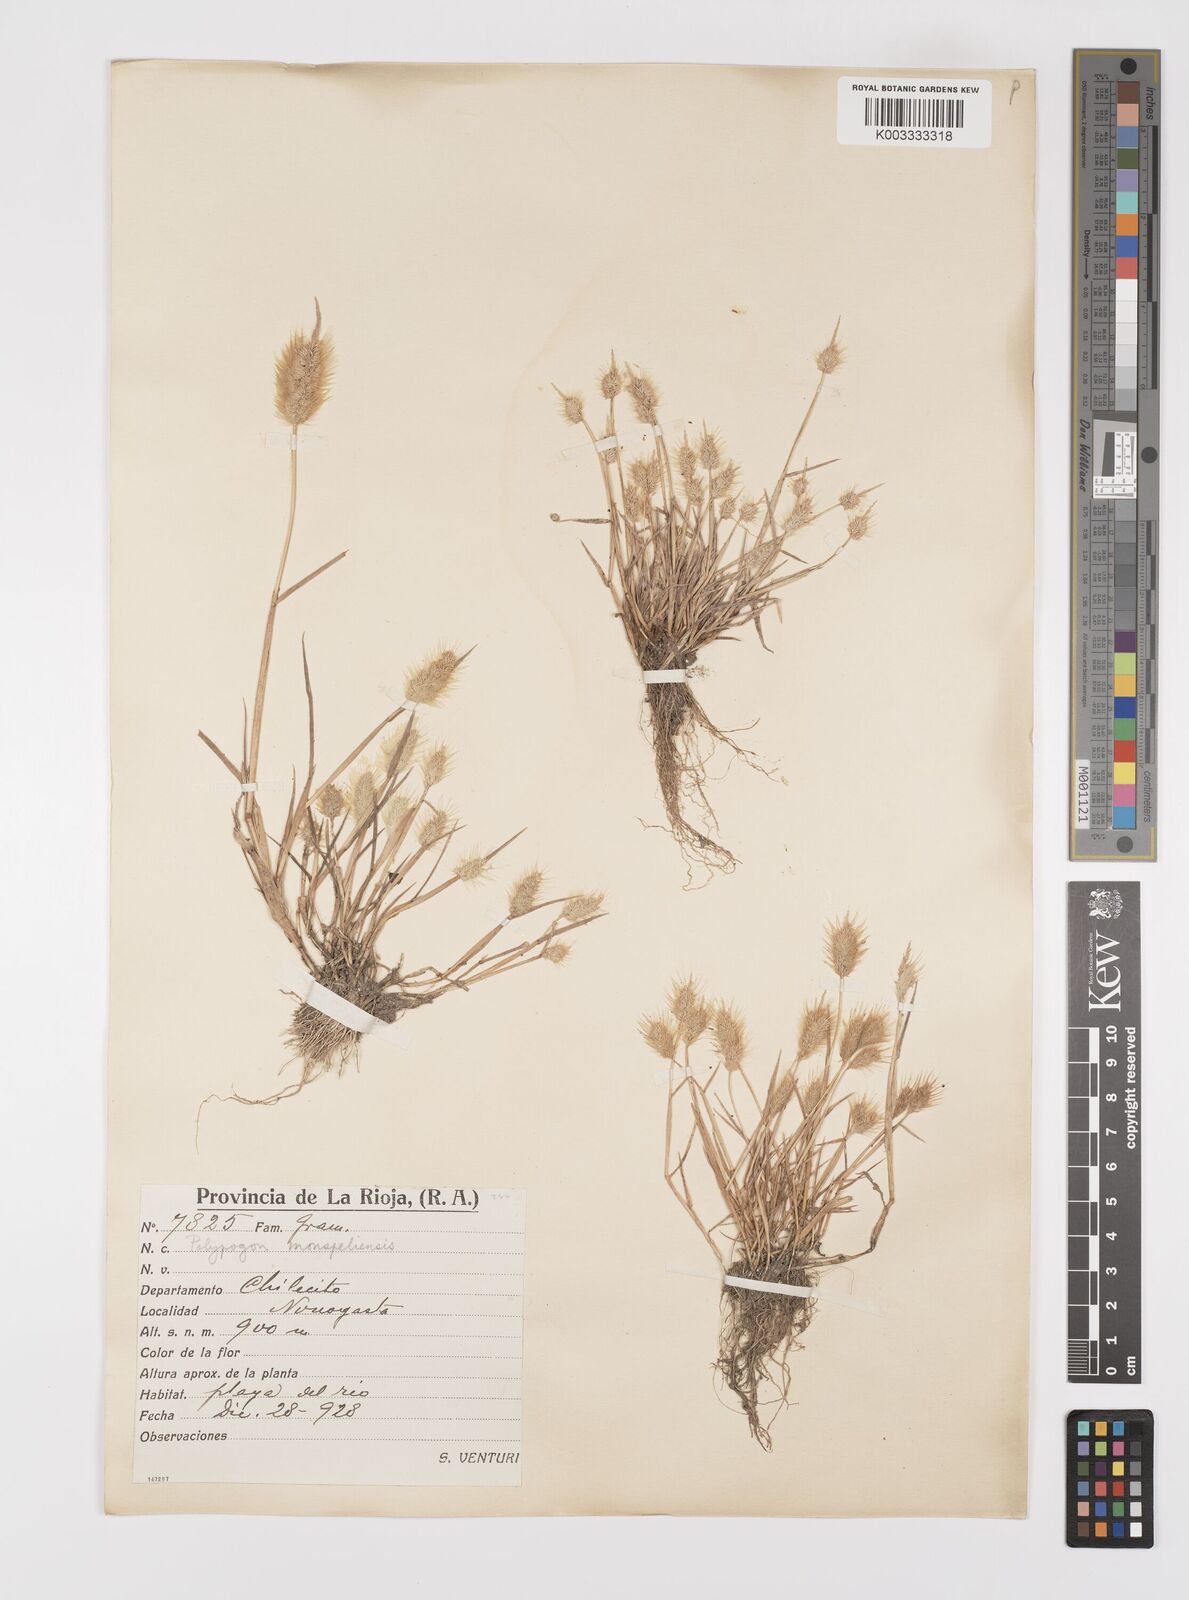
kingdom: Plantae
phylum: Tracheophyta
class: Liliopsida
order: Poales
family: Poaceae
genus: Polypogon
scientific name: Polypogon monspeliensis
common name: Annual rabbitsfoot grass
